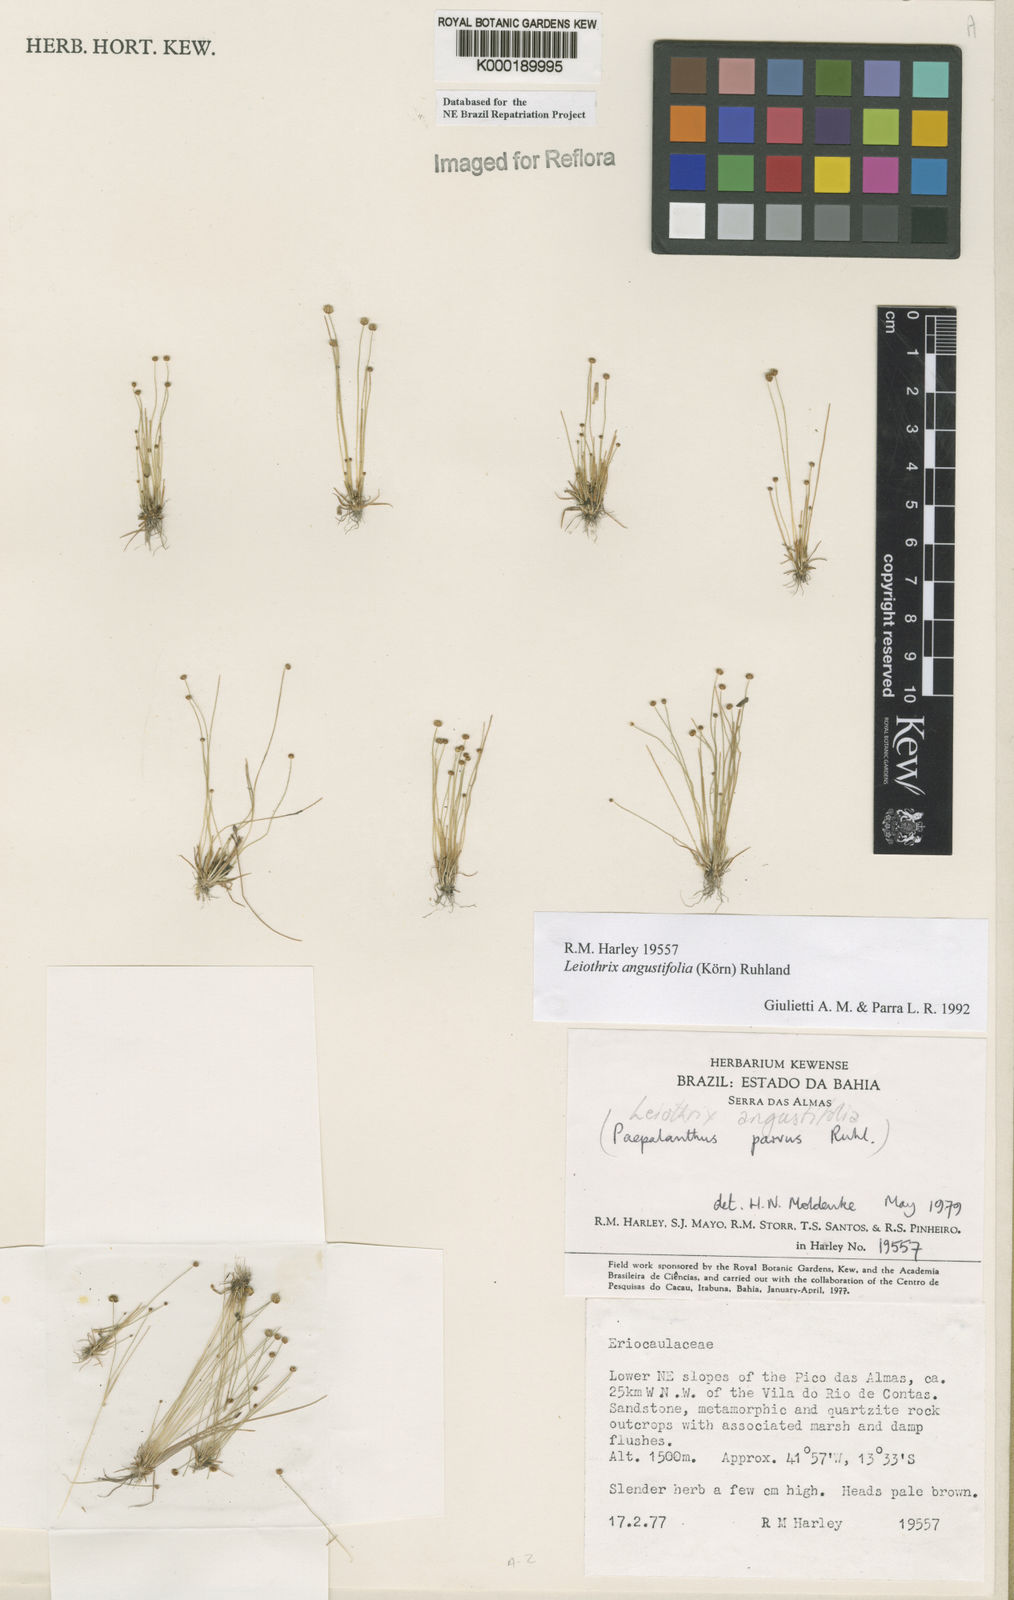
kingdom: Plantae
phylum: Tracheophyta
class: Liliopsida
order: Poales
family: Eriocaulaceae
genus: Leiothrix
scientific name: Leiothrix angustifolia
